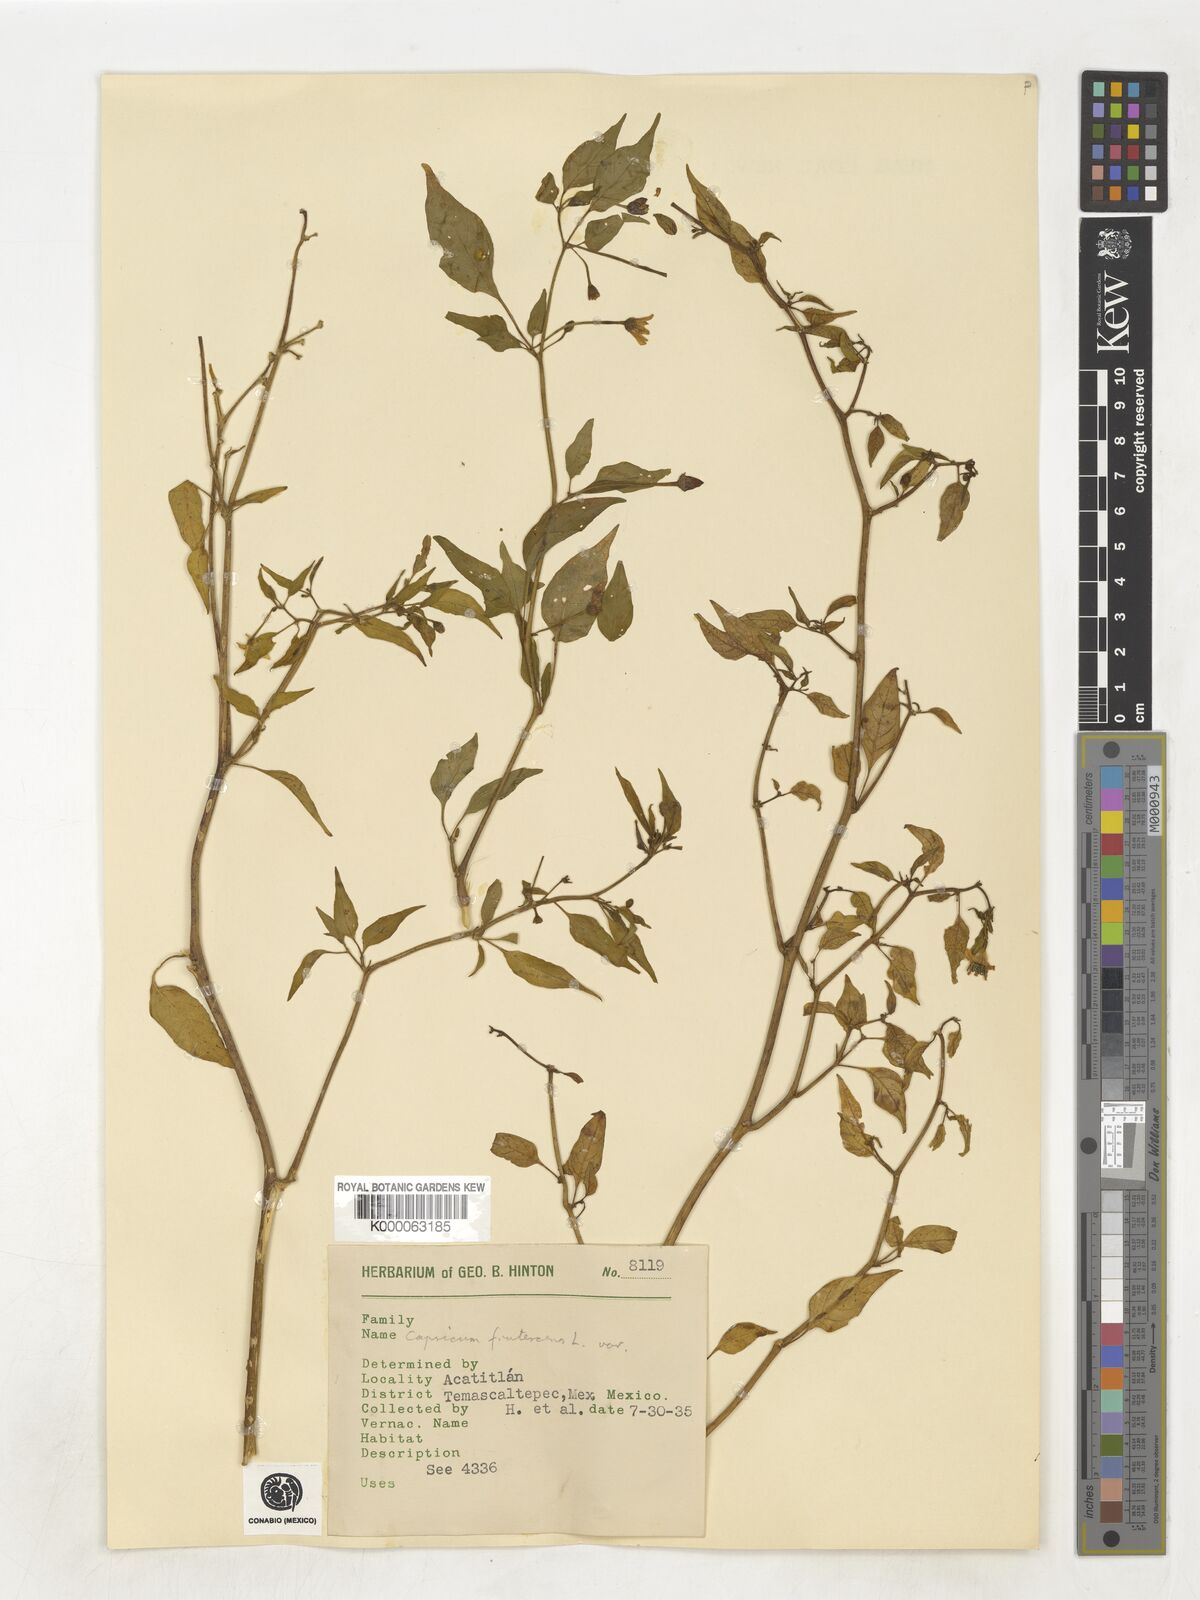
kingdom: Plantae
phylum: Tracheophyta
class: Magnoliopsida
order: Solanales
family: Solanaceae
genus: Capsicum
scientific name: Capsicum frutescens
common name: Bird pepper
